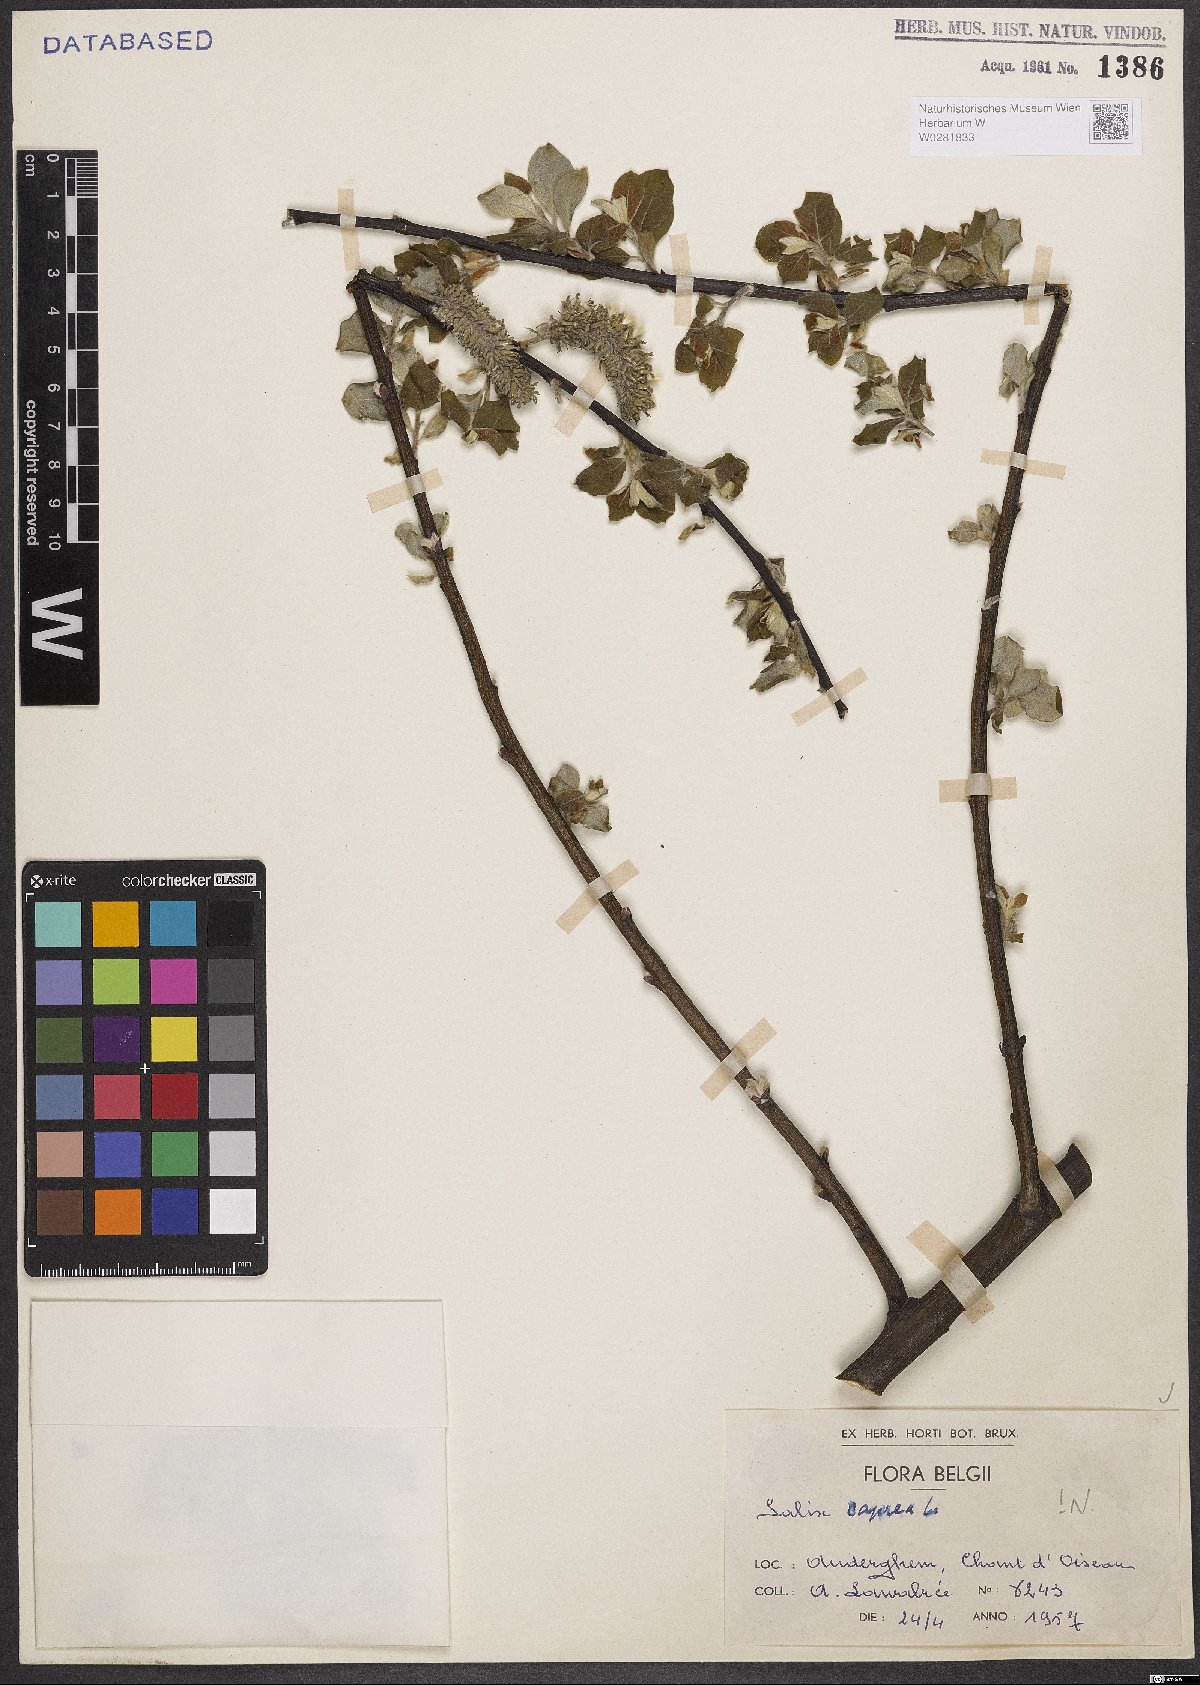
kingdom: Plantae
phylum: Tracheophyta
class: Magnoliopsida
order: Malpighiales
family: Salicaceae
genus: Salix
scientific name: Salix caprea
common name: Goat willow
